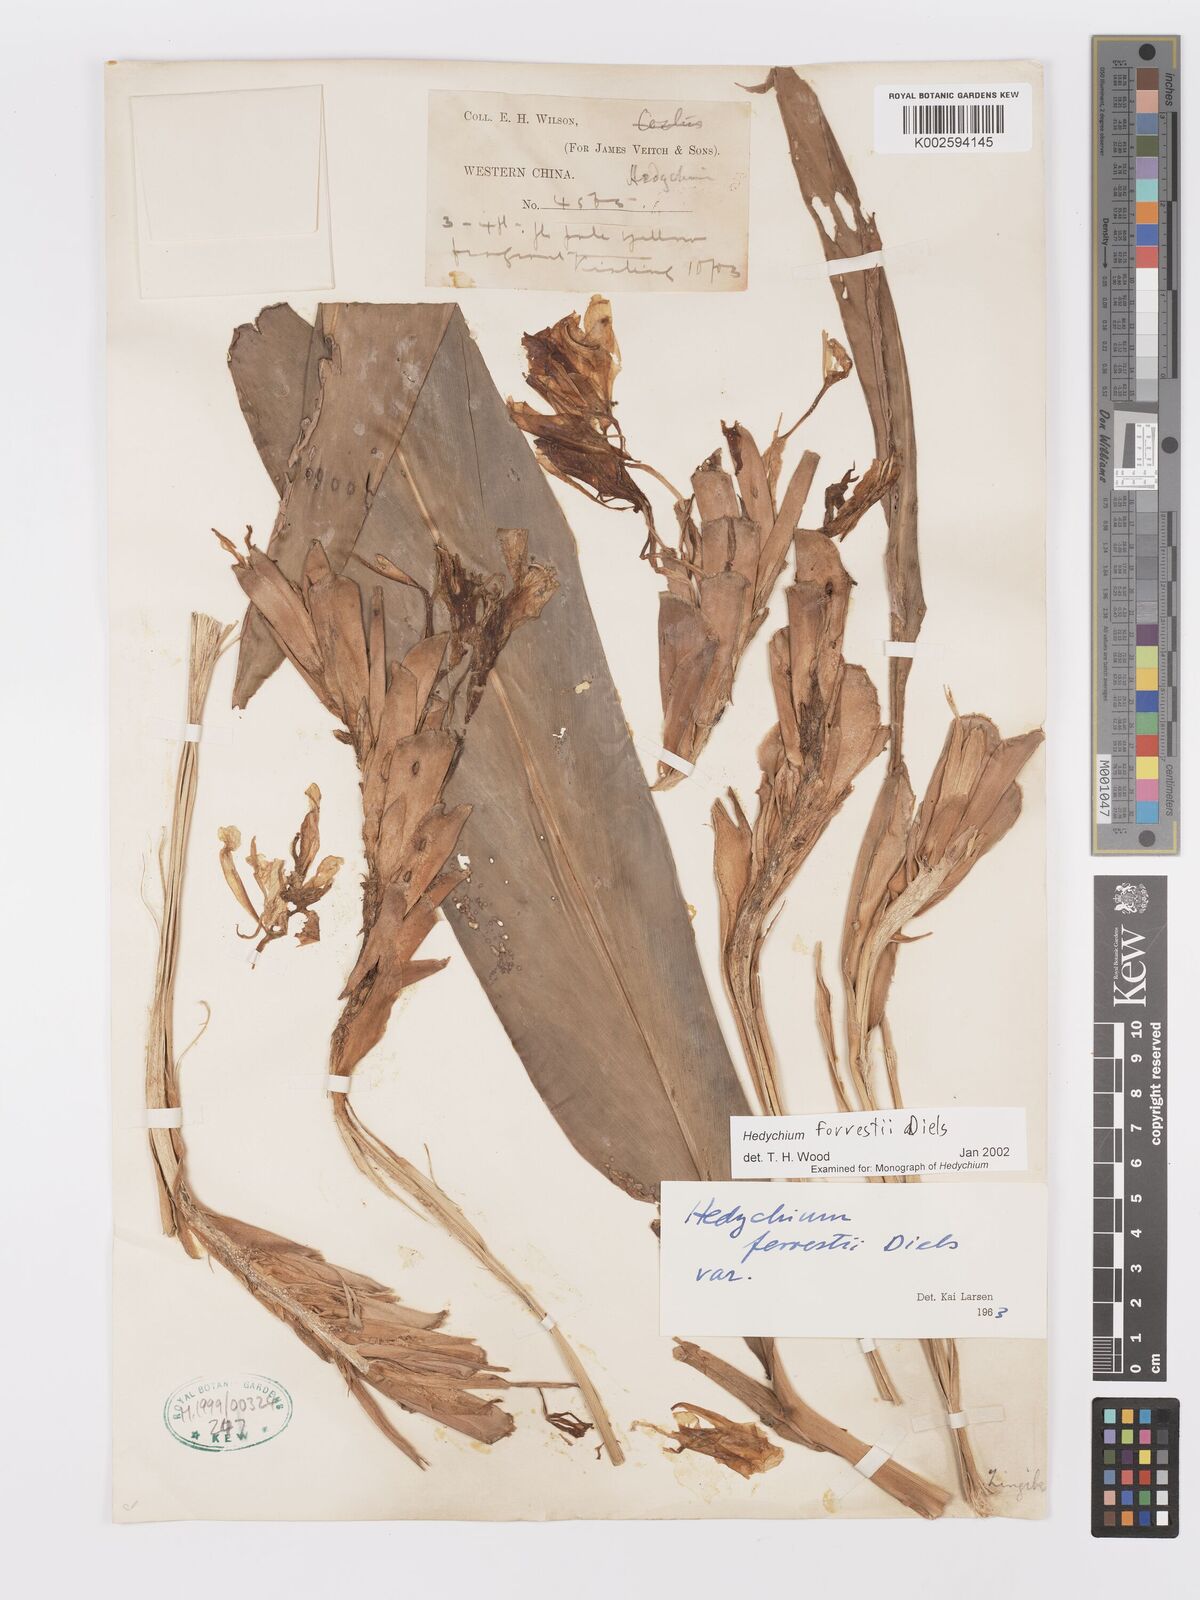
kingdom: Plantae
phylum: Tracheophyta
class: Liliopsida
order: Zingiberales
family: Zingiberaceae
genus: Hedychium
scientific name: Hedychium forrestii
